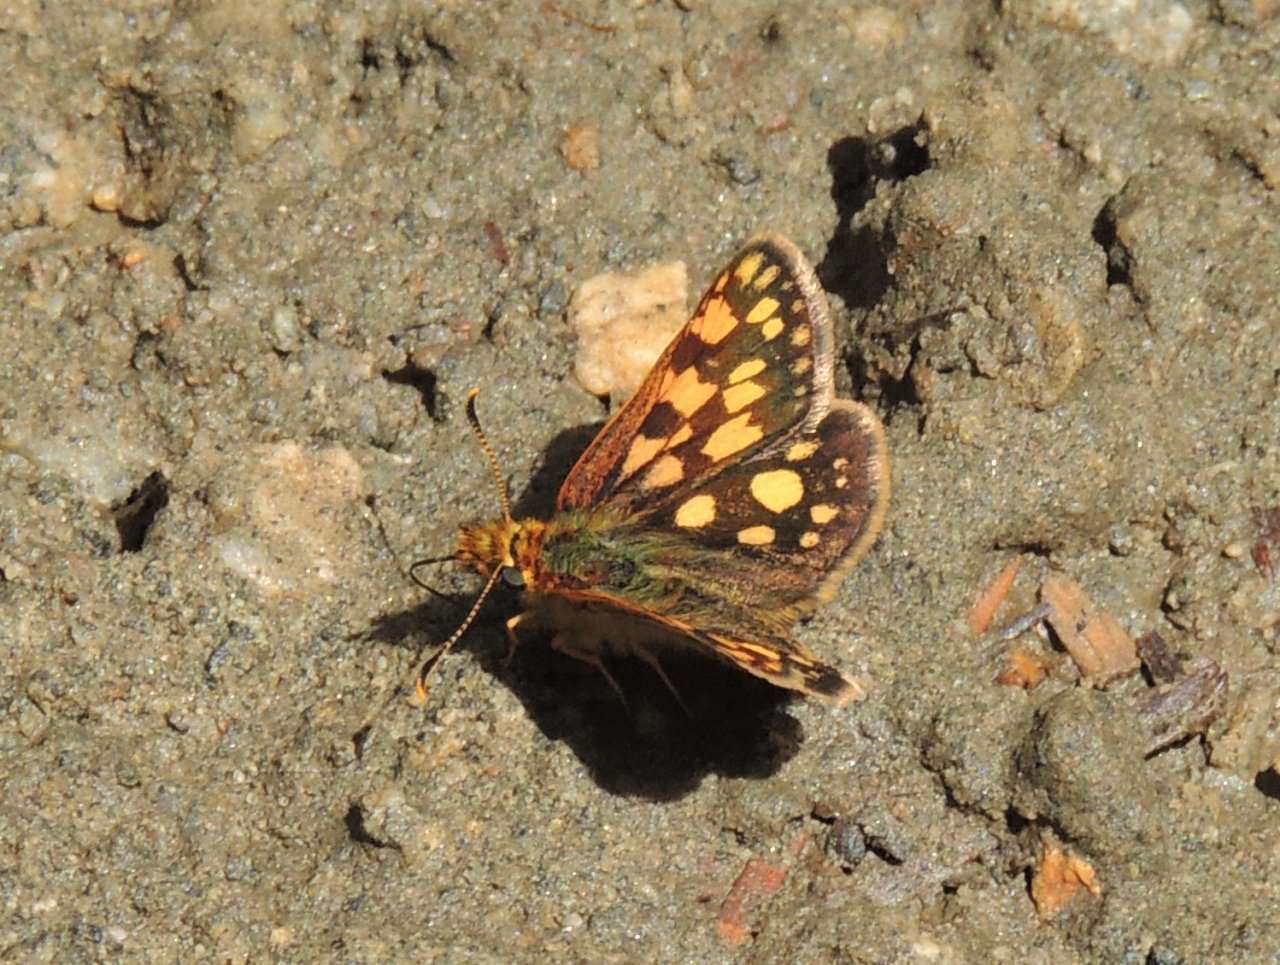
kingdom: Animalia
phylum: Arthropoda
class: Insecta
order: Lepidoptera
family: Hesperiidae
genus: Carterocephalus
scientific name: Carterocephalus palaemon
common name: Chequered Skipper
